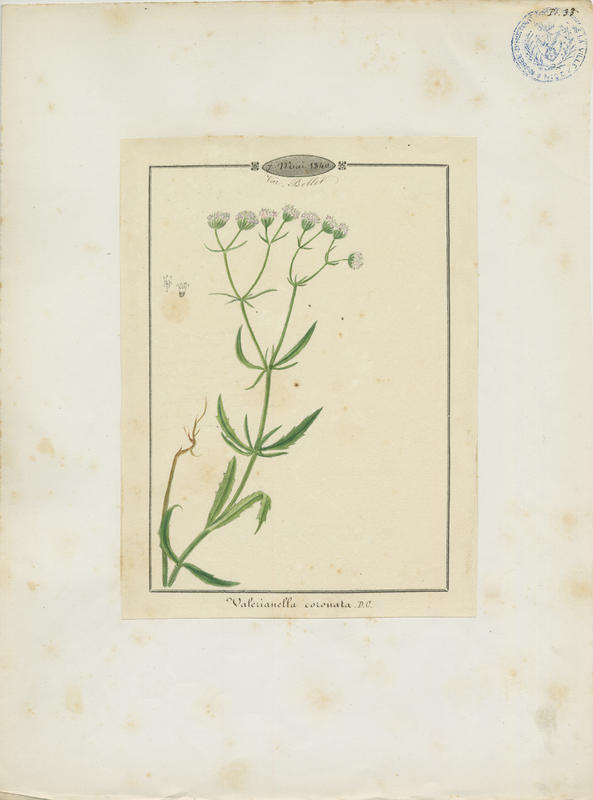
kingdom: Plantae
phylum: Tracheophyta
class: Magnoliopsida
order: Dipsacales
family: Caprifoliaceae
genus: Valerianella
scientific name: Valerianella coronata
